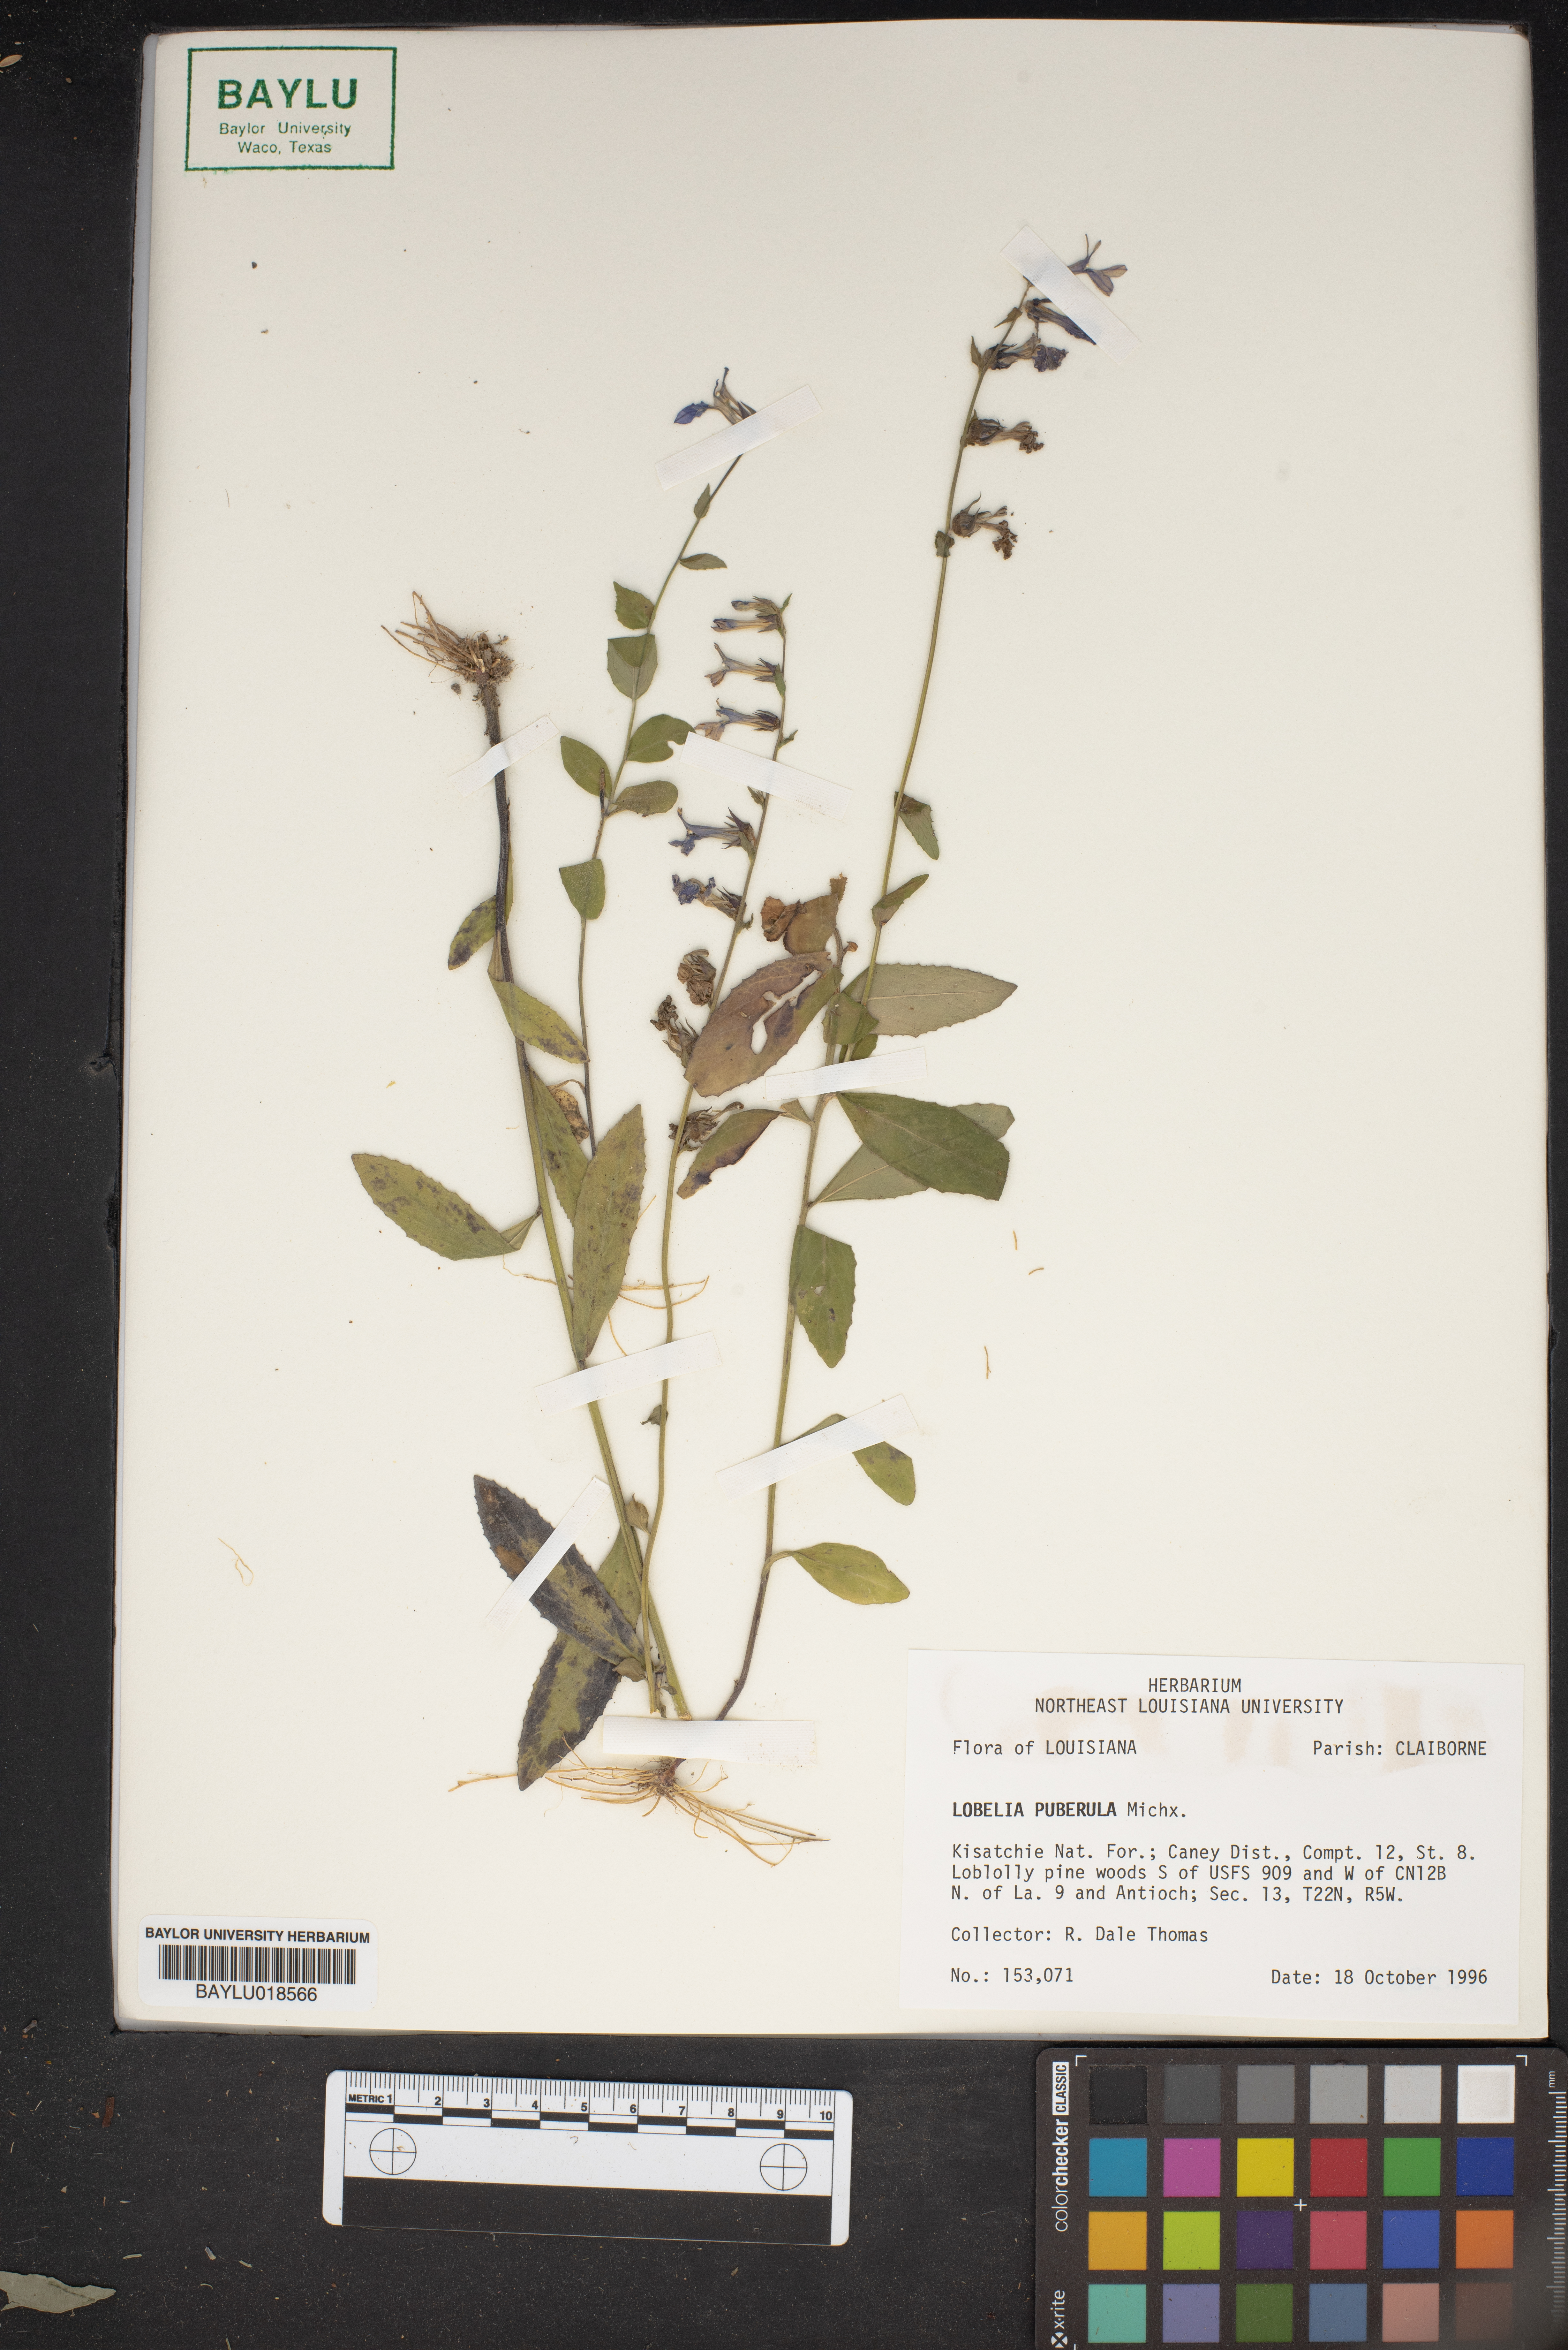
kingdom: Plantae
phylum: Tracheophyta
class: Magnoliopsida
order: Asterales
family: Campanulaceae
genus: Lobelia
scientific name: Lobelia puberula
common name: Purple dewdrop
